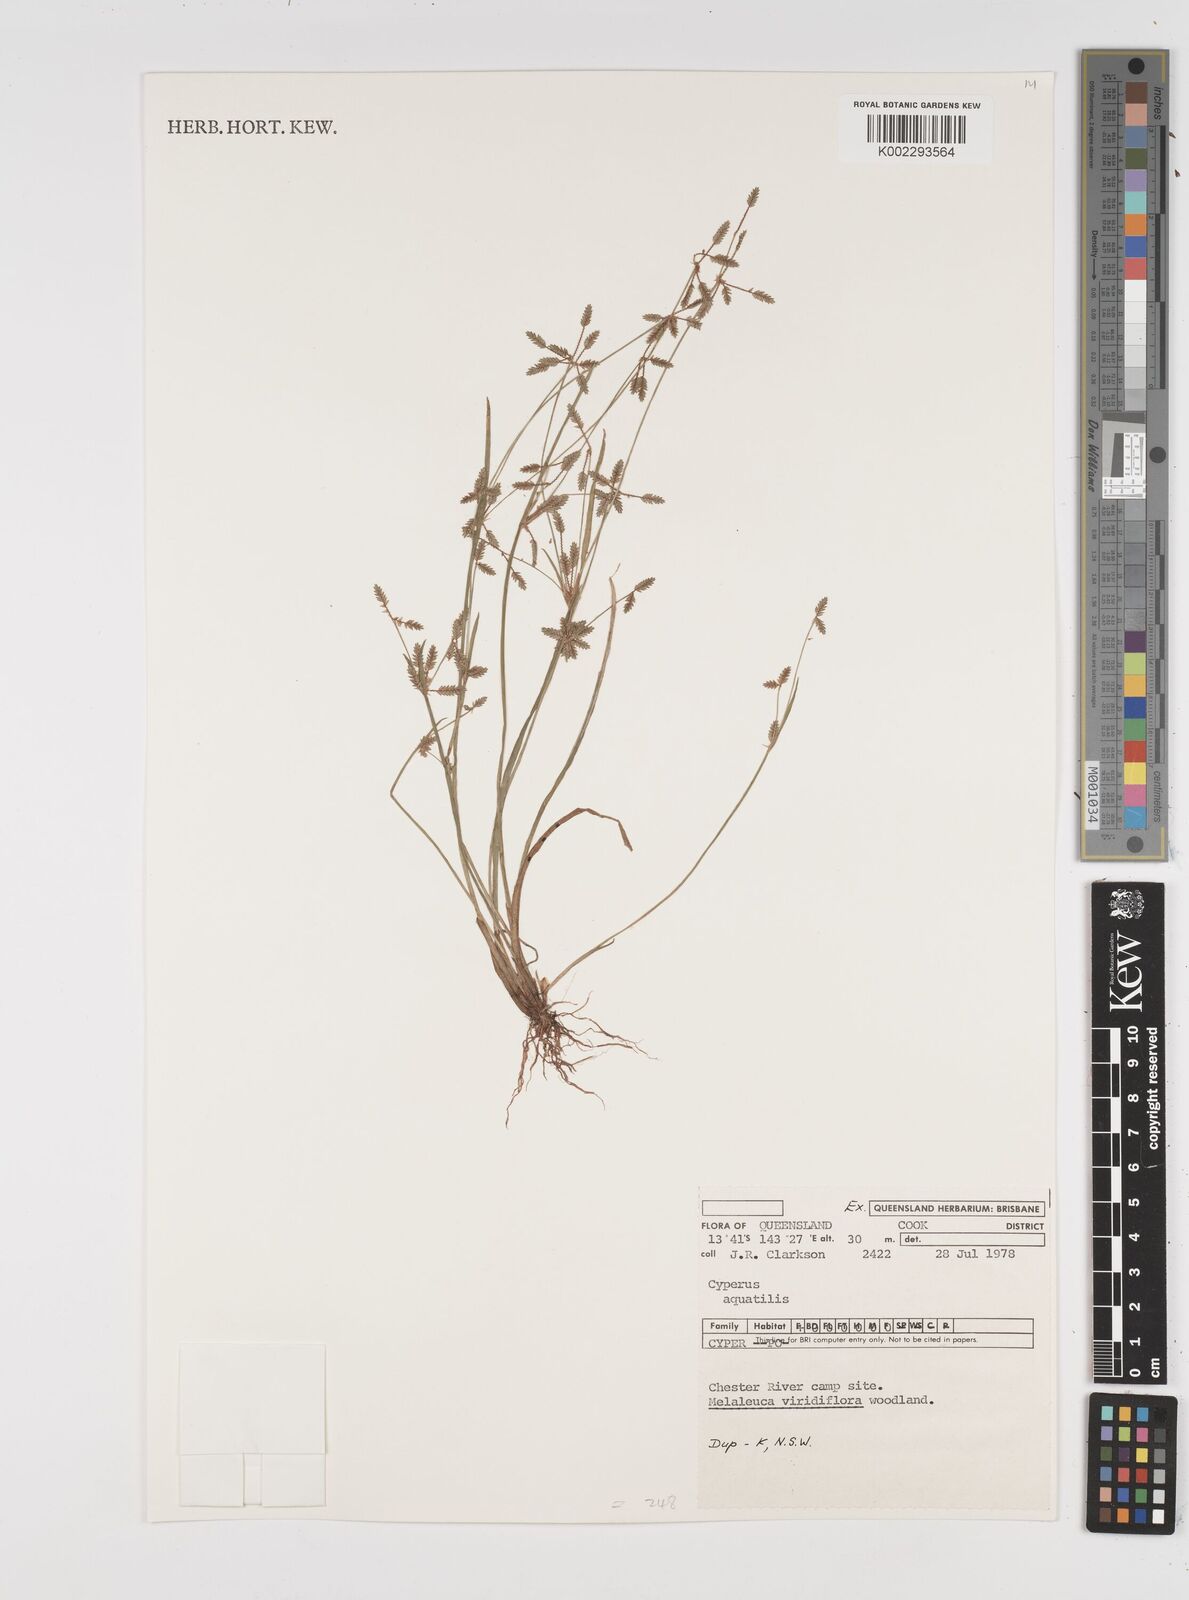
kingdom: Plantae
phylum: Tracheophyta
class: Liliopsida
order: Poales
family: Cyperaceae
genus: Cyperus
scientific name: Cyperus aquatilis
